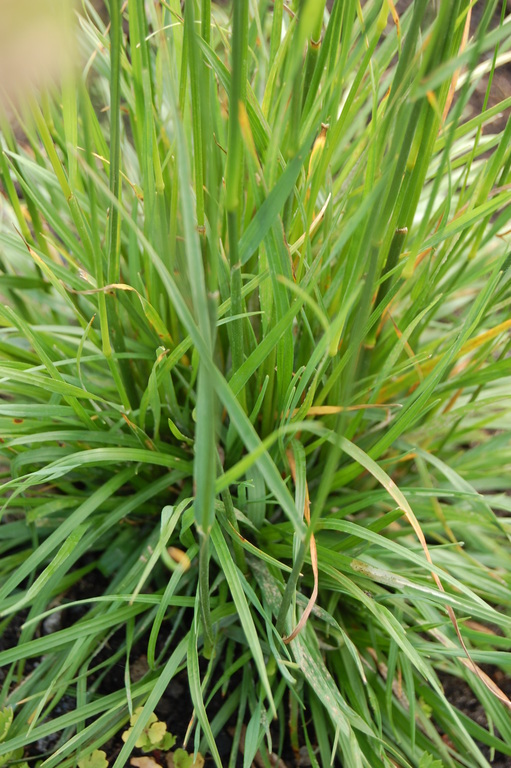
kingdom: Plantae
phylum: Tracheophyta
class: Liliopsida
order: Poales
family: Poaceae
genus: Cynosurus
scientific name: Cynosurus cristatus
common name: Crested dog's-tail
